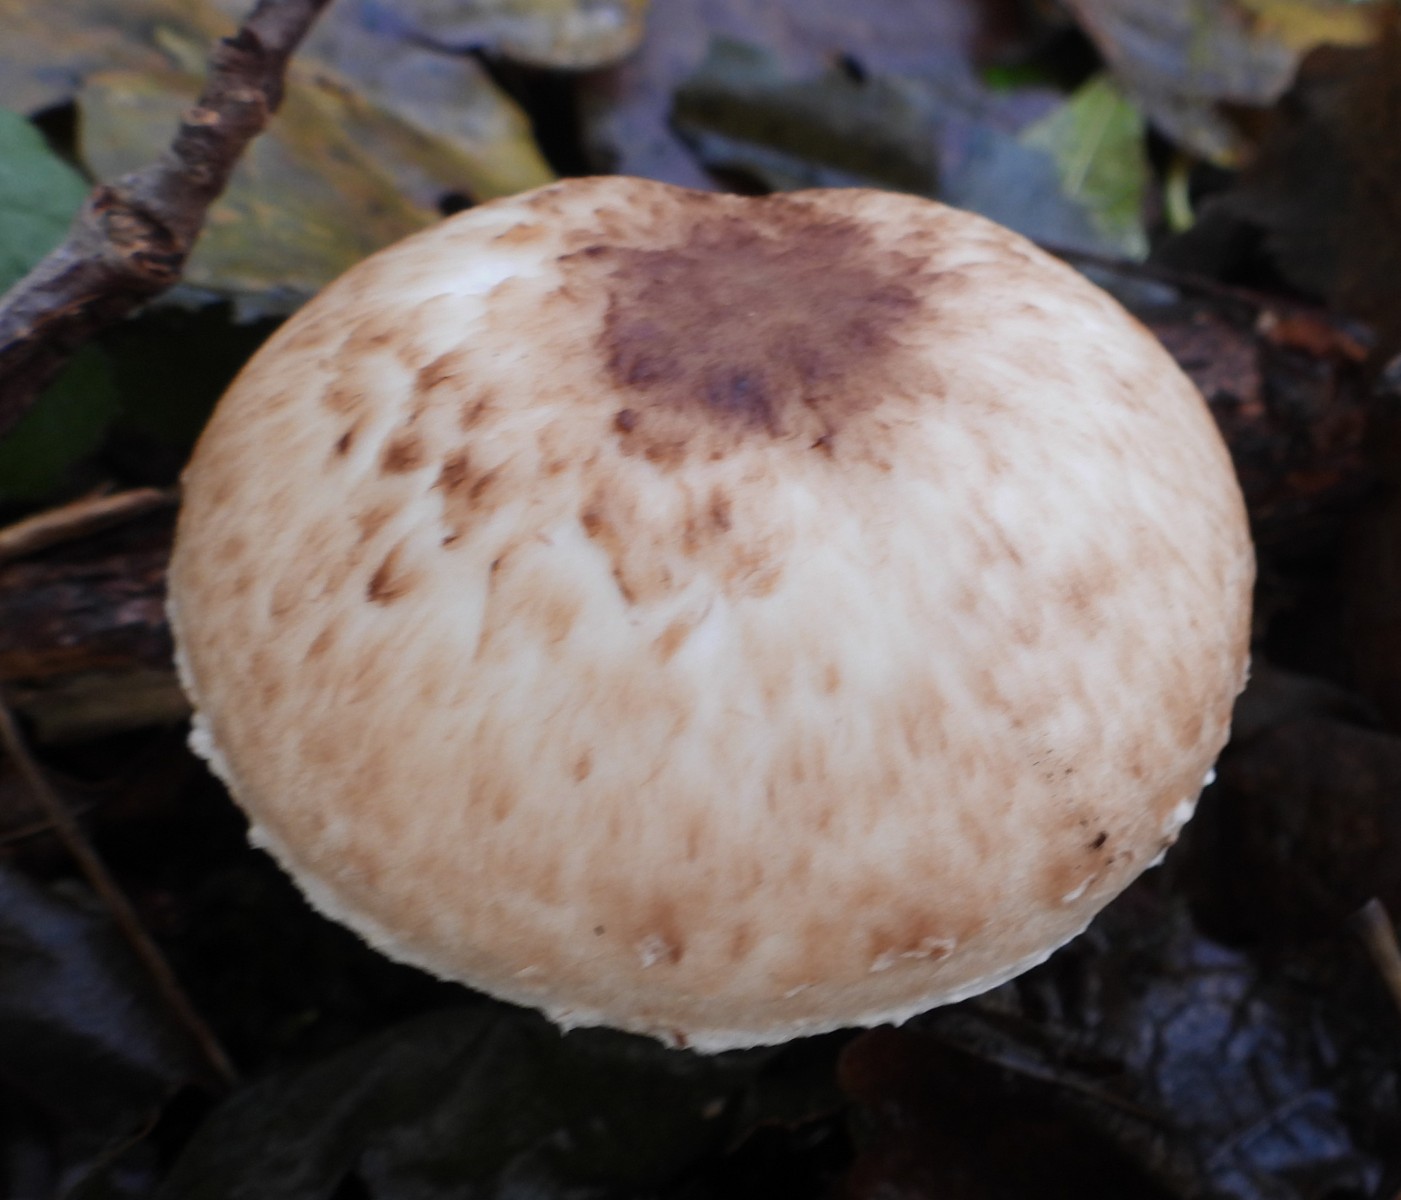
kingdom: Fungi
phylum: Basidiomycota
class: Agaricomycetes
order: Agaricales
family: Agaricaceae
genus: Agaricus
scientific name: Agaricus impudicus
